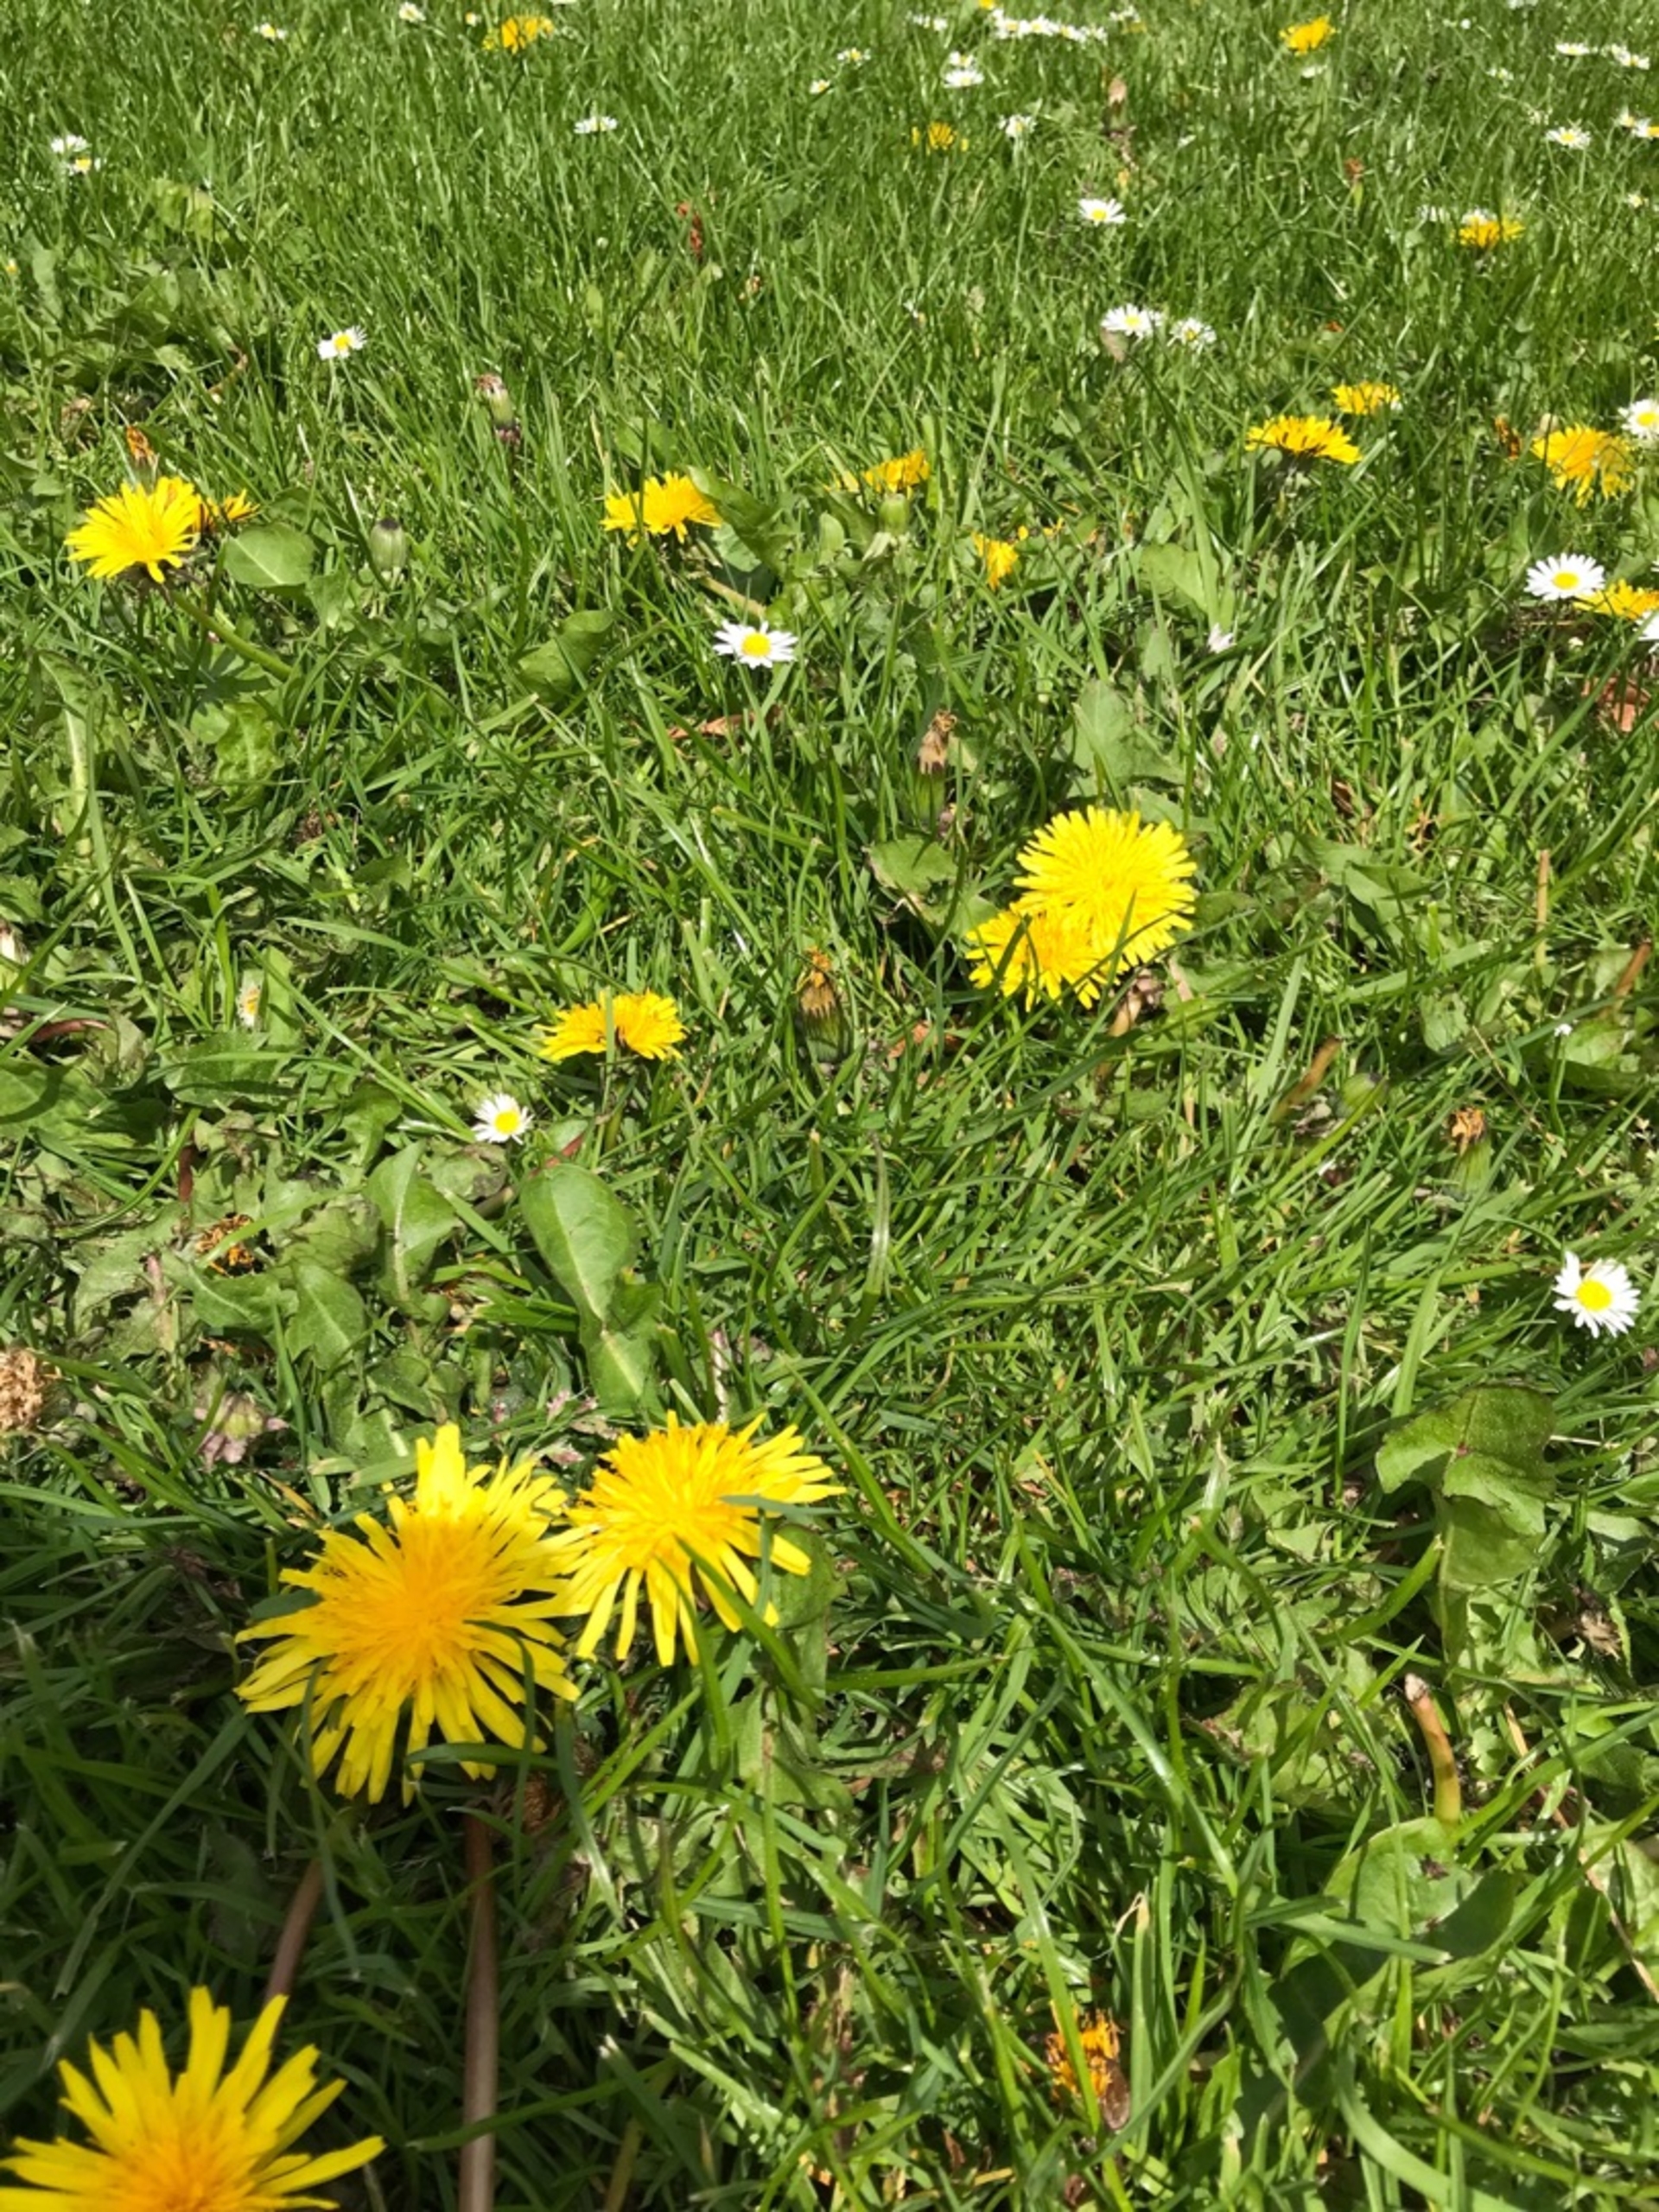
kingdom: Plantae
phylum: Tracheophyta
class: Magnoliopsida
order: Asterales
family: Asteraceae
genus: Taraxacum
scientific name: Taraxacum
